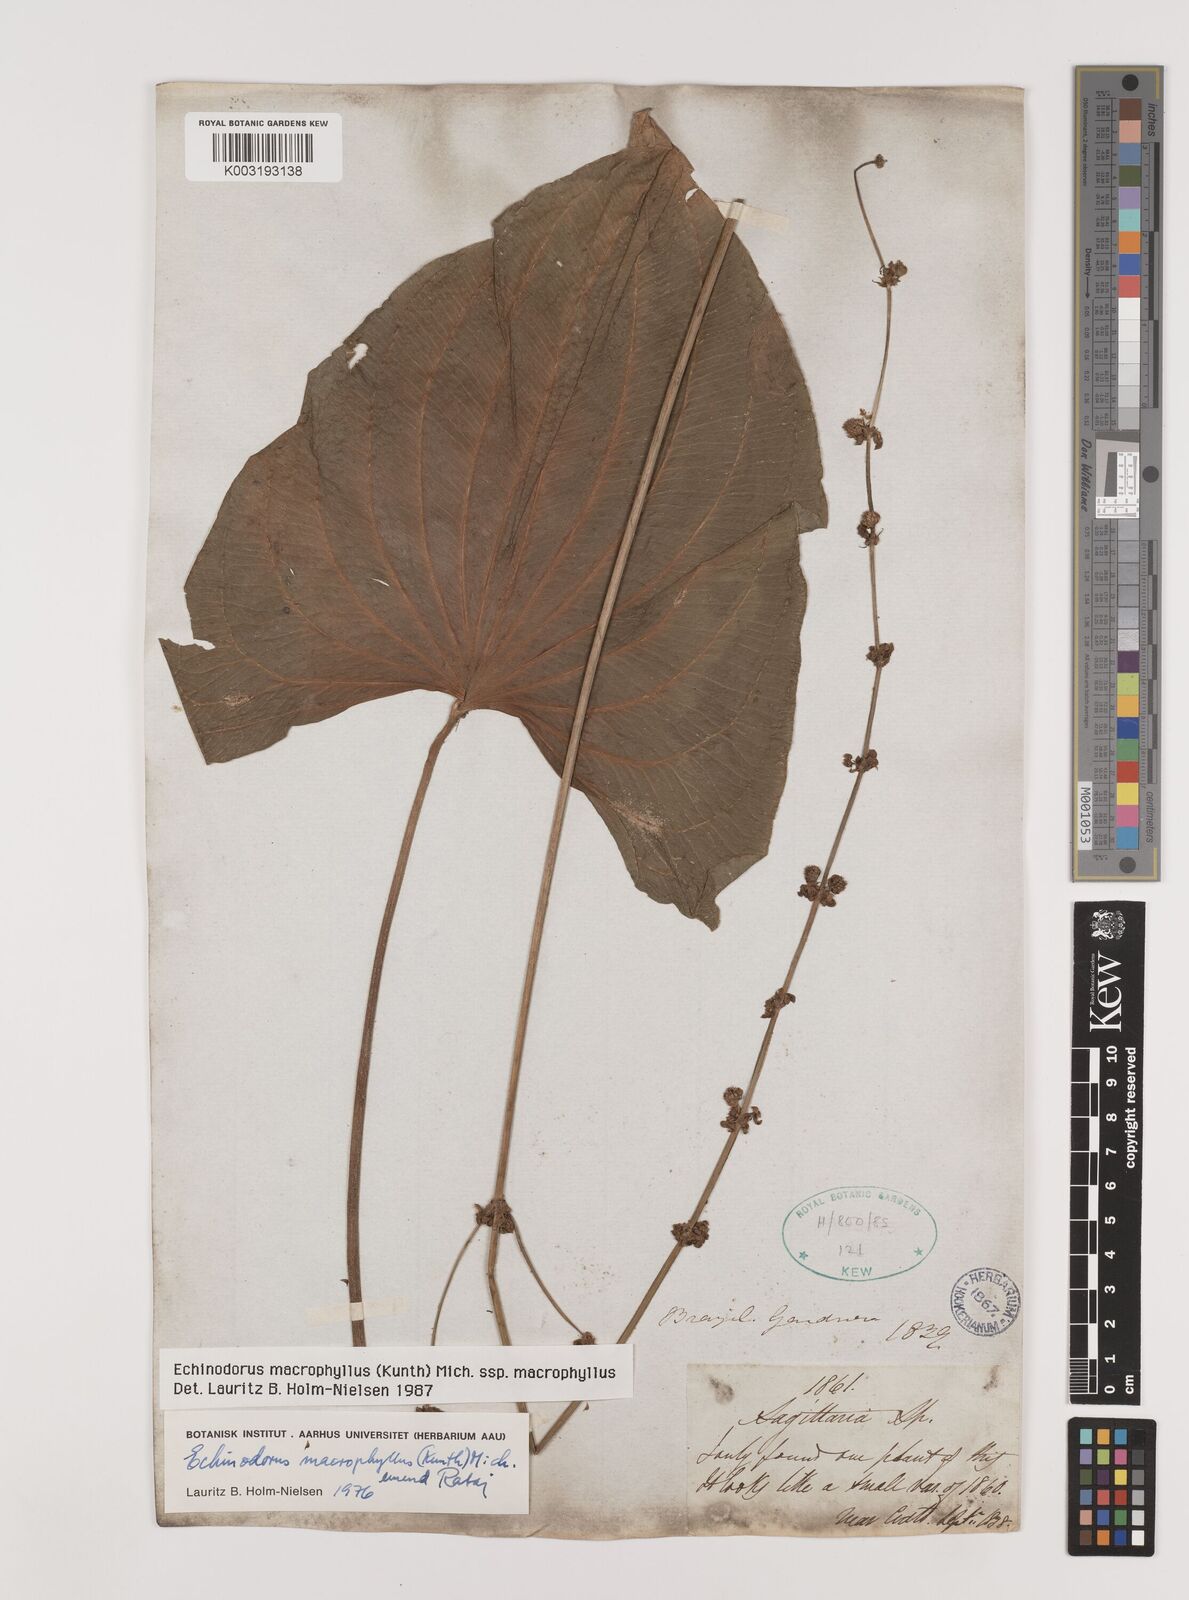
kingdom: Plantae
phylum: Tracheophyta
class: Liliopsida
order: Alismatales
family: Alismataceae
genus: Aquarius
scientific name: Aquarius macrophyllus
